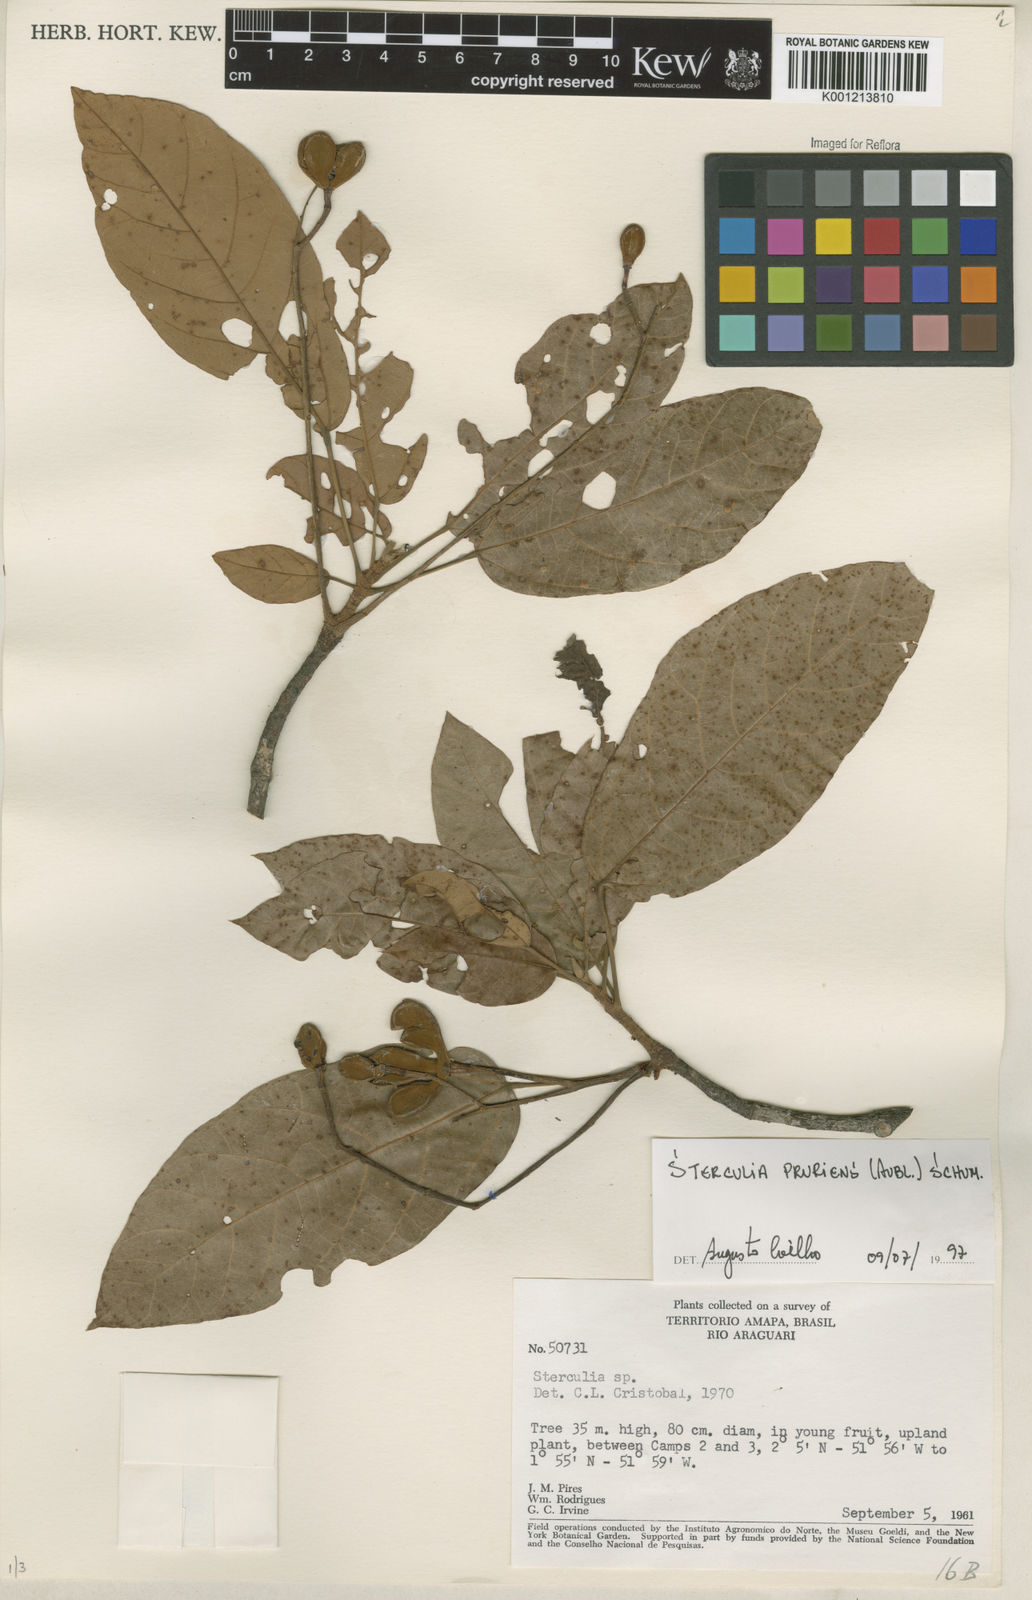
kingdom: Plantae
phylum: Tracheophyta
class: Magnoliopsida
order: Malvales
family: Malvaceae
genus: Sterculia
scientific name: Sterculia pruriens
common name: Grand mahot
